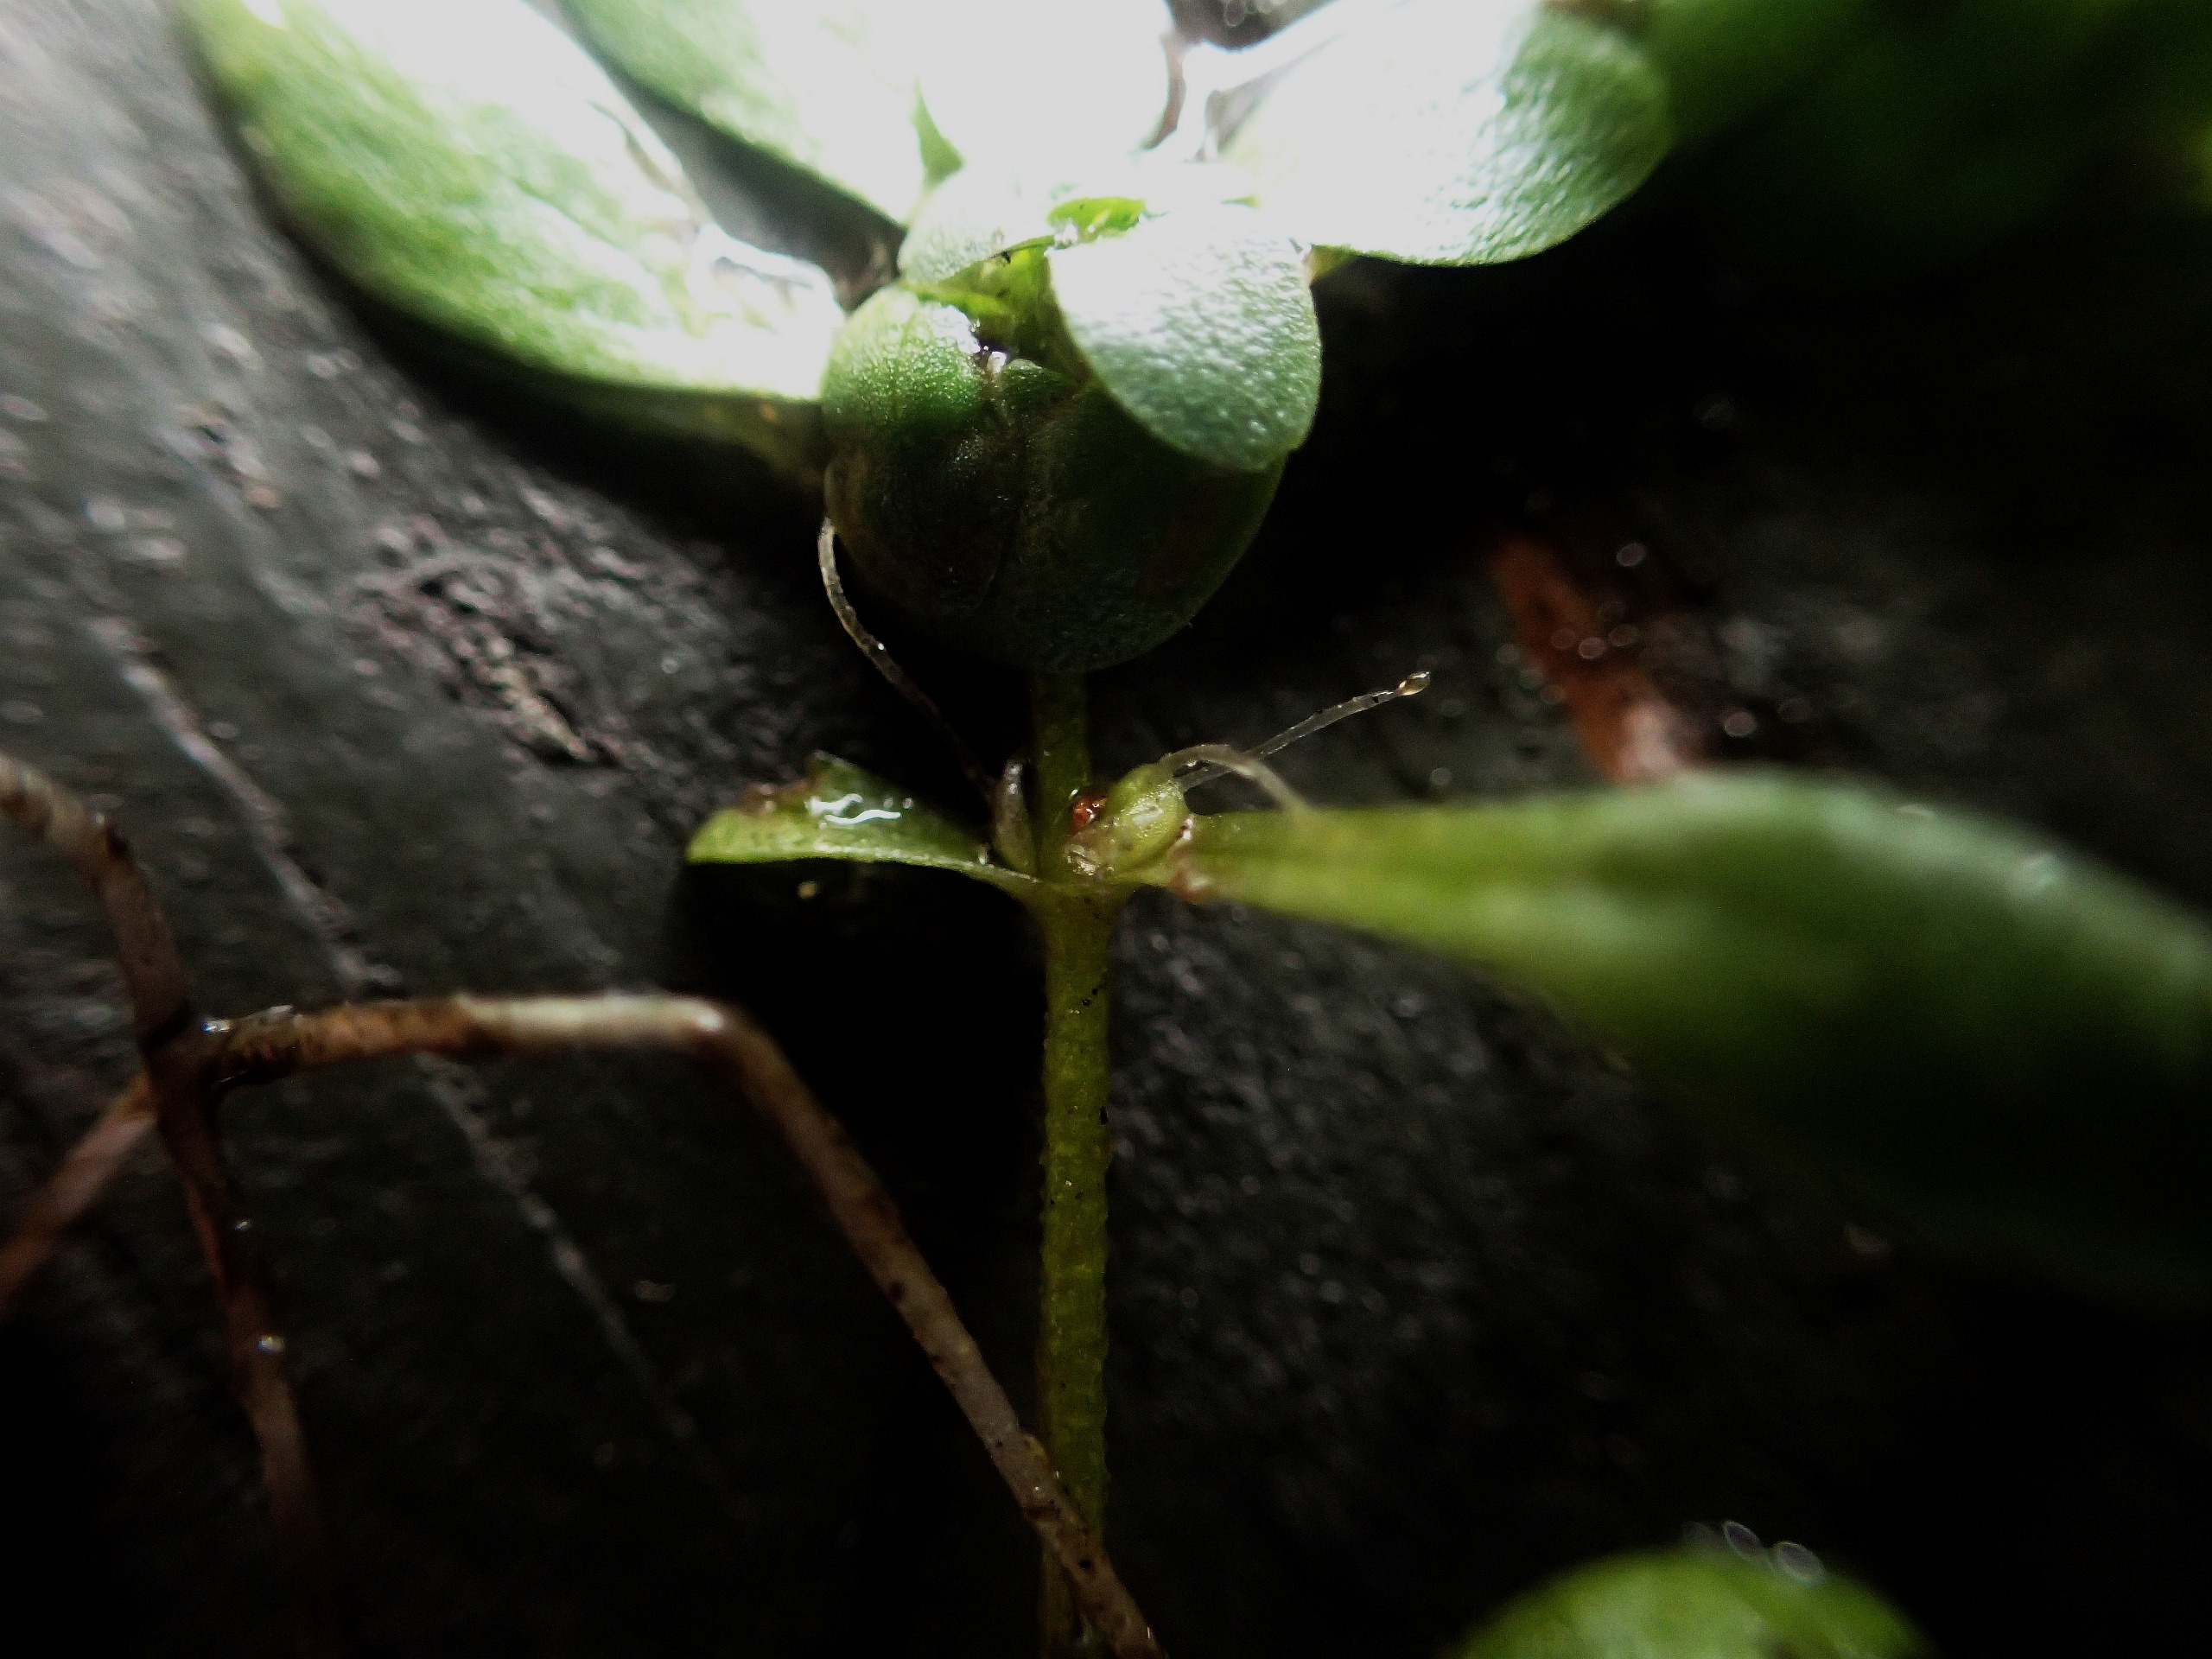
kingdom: Plantae
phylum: Tracheophyta
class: Magnoliopsida
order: Lamiales
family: Plantaginaceae
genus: Callitriche
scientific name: Callitriche platycarpa
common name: Fladfrugtet vandstjerne
